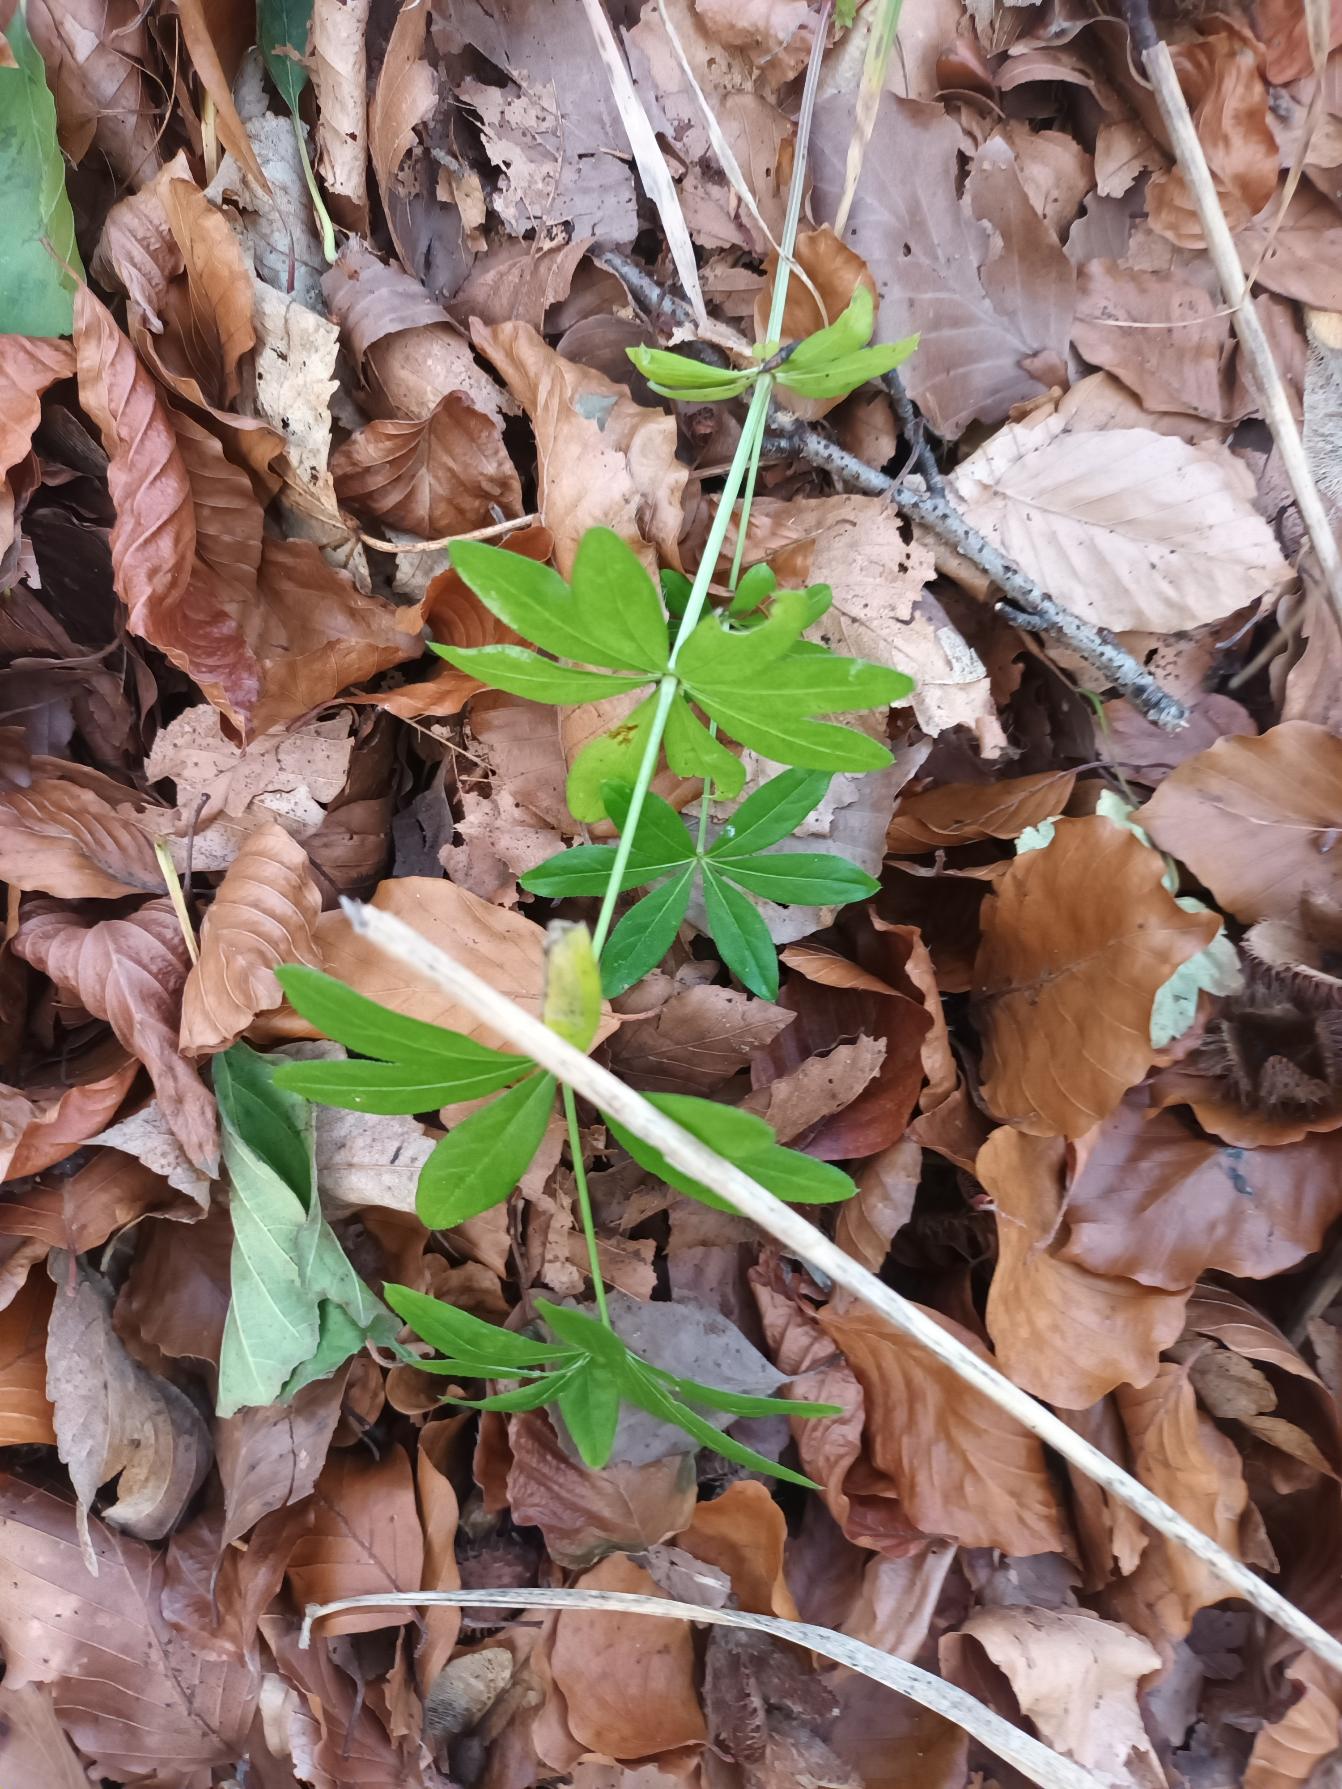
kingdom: Plantae
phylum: Tracheophyta
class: Magnoliopsida
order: Gentianales
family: Rubiaceae
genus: Galium
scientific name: Galium odoratum
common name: Skovmærke
